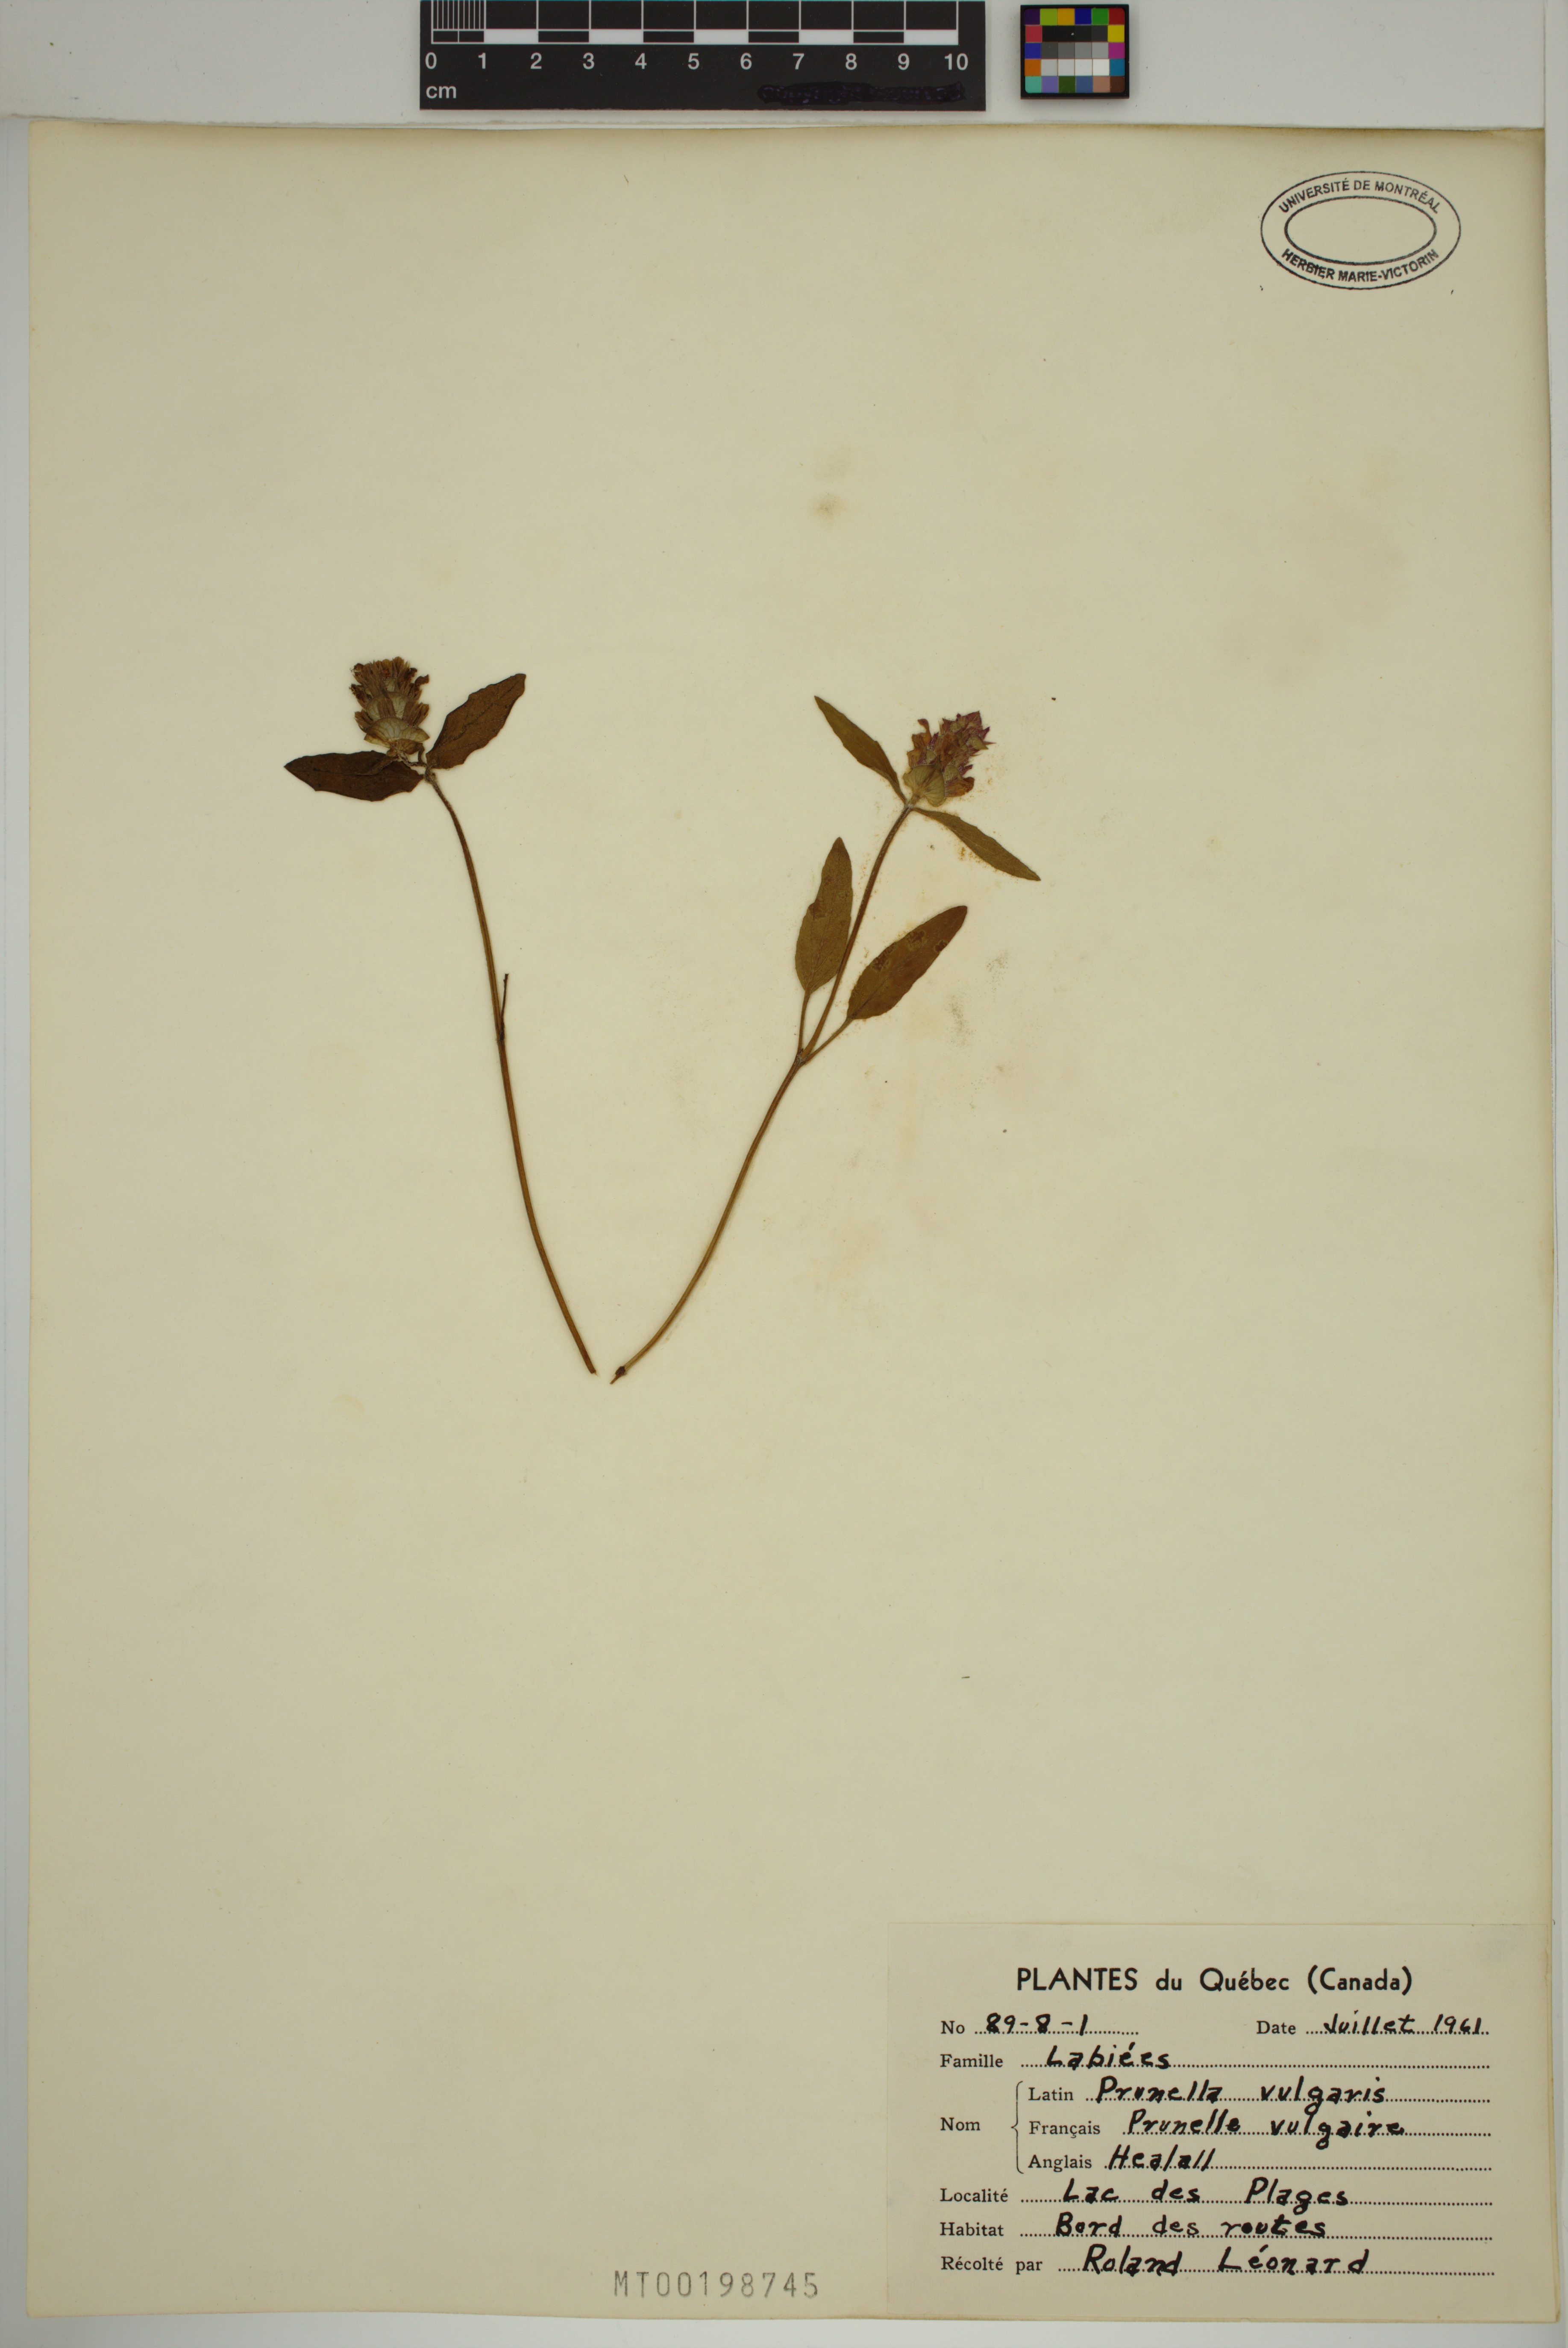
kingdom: Plantae
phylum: Tracheophyta
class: Magnoliopsida
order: Lamiales
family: Lamiaceae
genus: Prunella
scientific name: Prunella vulgaris
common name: Heal-all
